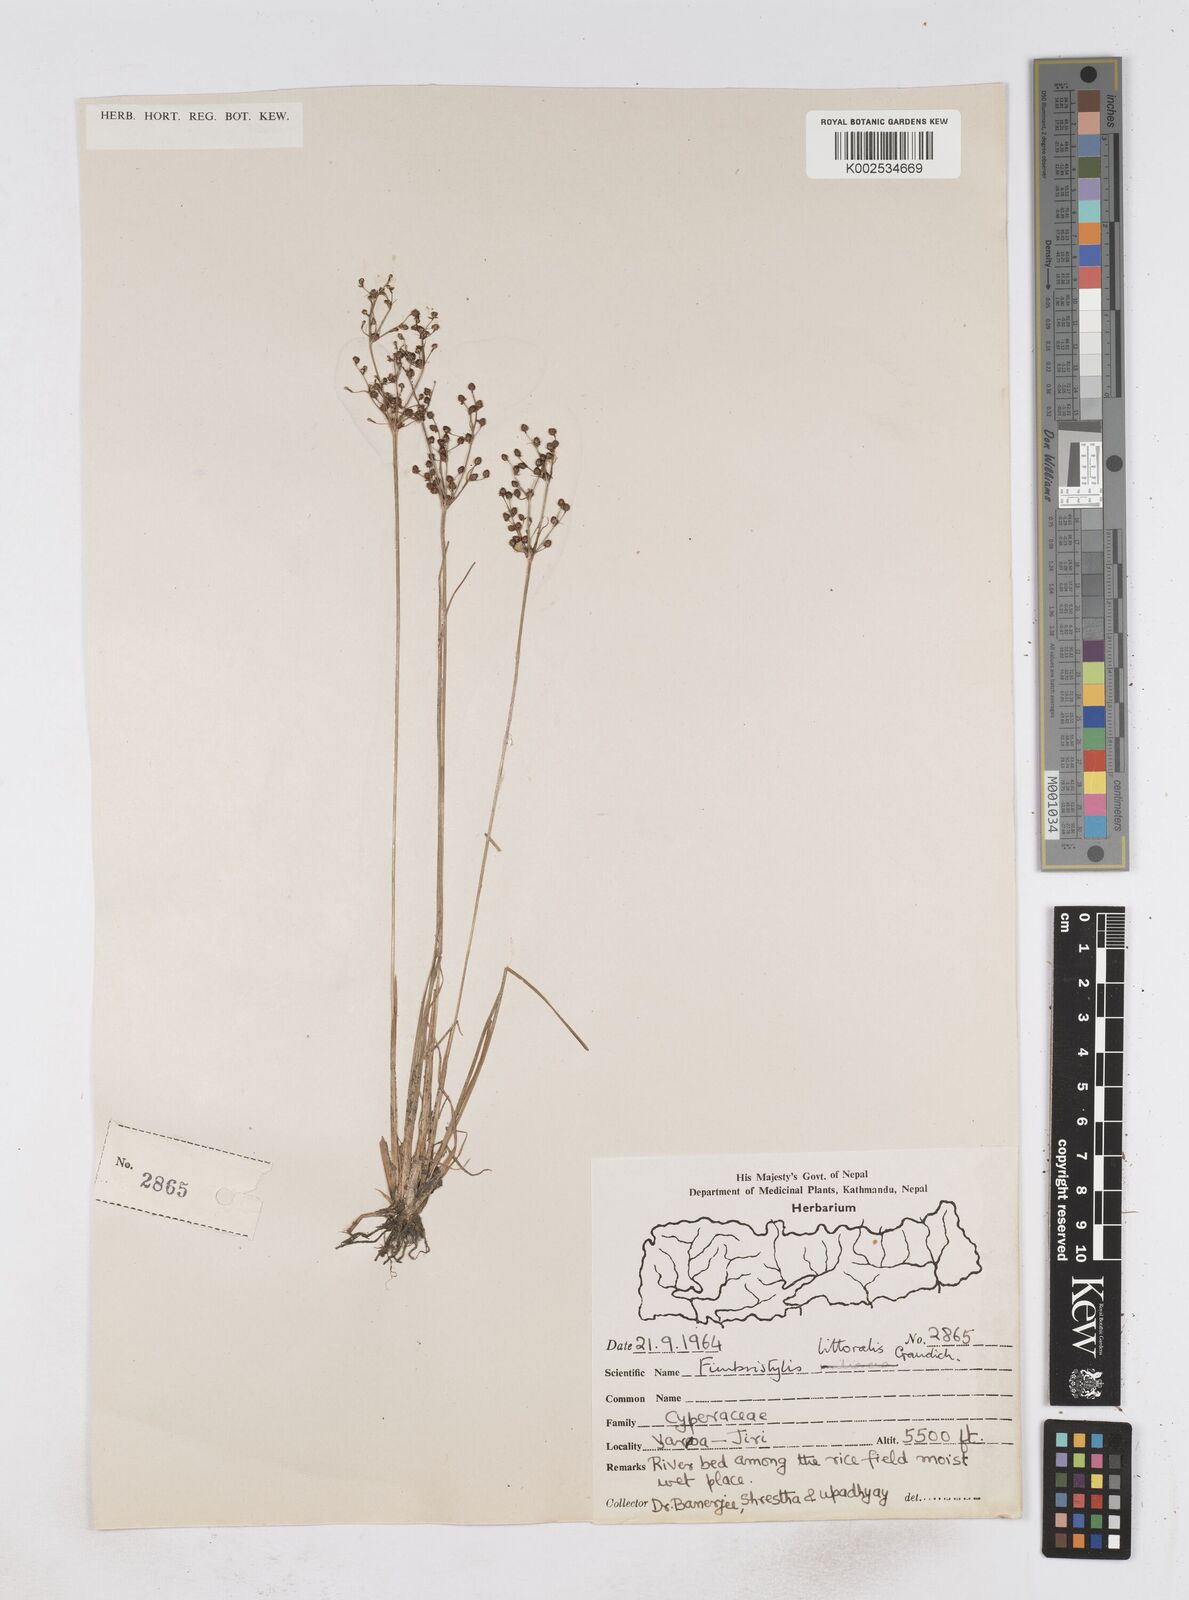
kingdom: Plantae
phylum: Tracheophyta
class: Liliopsida
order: Poales
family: Cyperaceae
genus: Fimbristylis
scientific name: Fimbristylis littoralis
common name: Fimbry
